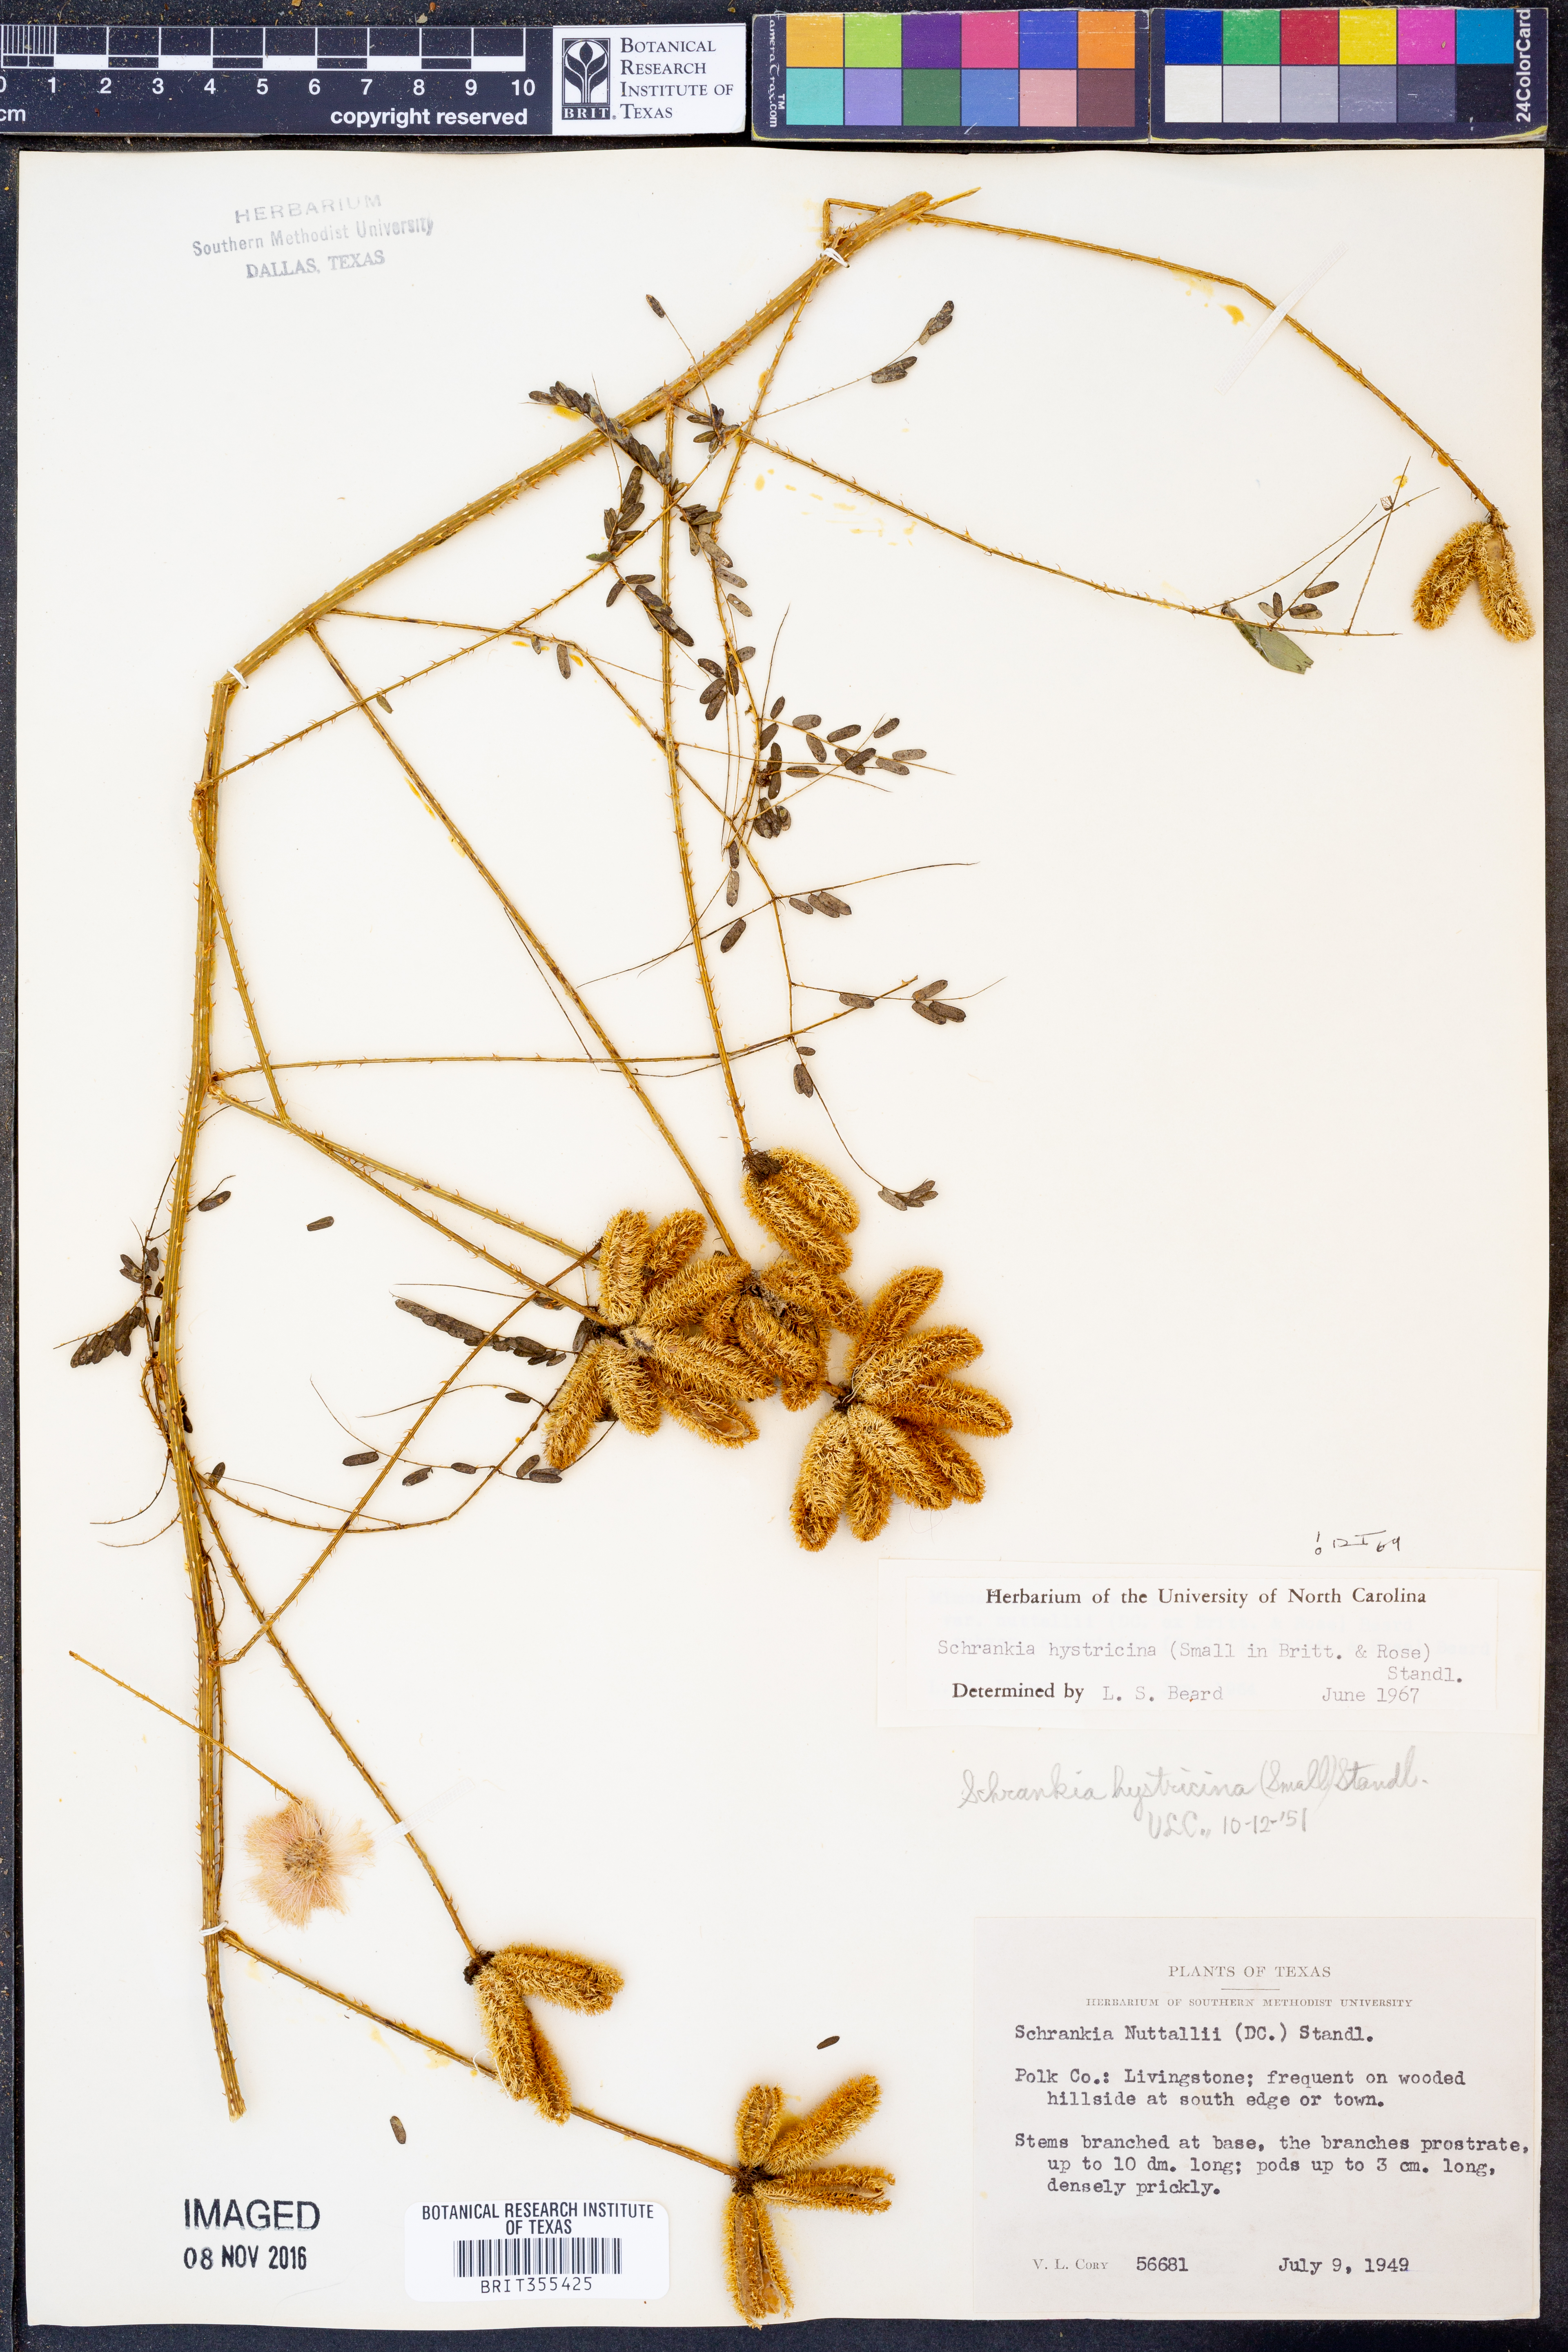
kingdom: Plantae
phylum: Tracheophyta
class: Magnoliopsida
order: Fabales
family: Fabaceae
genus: Mimosa
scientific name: Mimosa hystricina
